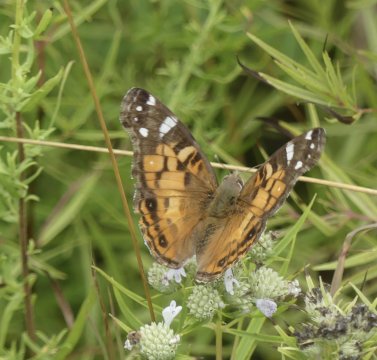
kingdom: Animalia
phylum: Arthropoda
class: Insecta
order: Lepidoptera
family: Nymphalidae
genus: Vanessa
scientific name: Vanessa virginiensis
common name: American Lady
